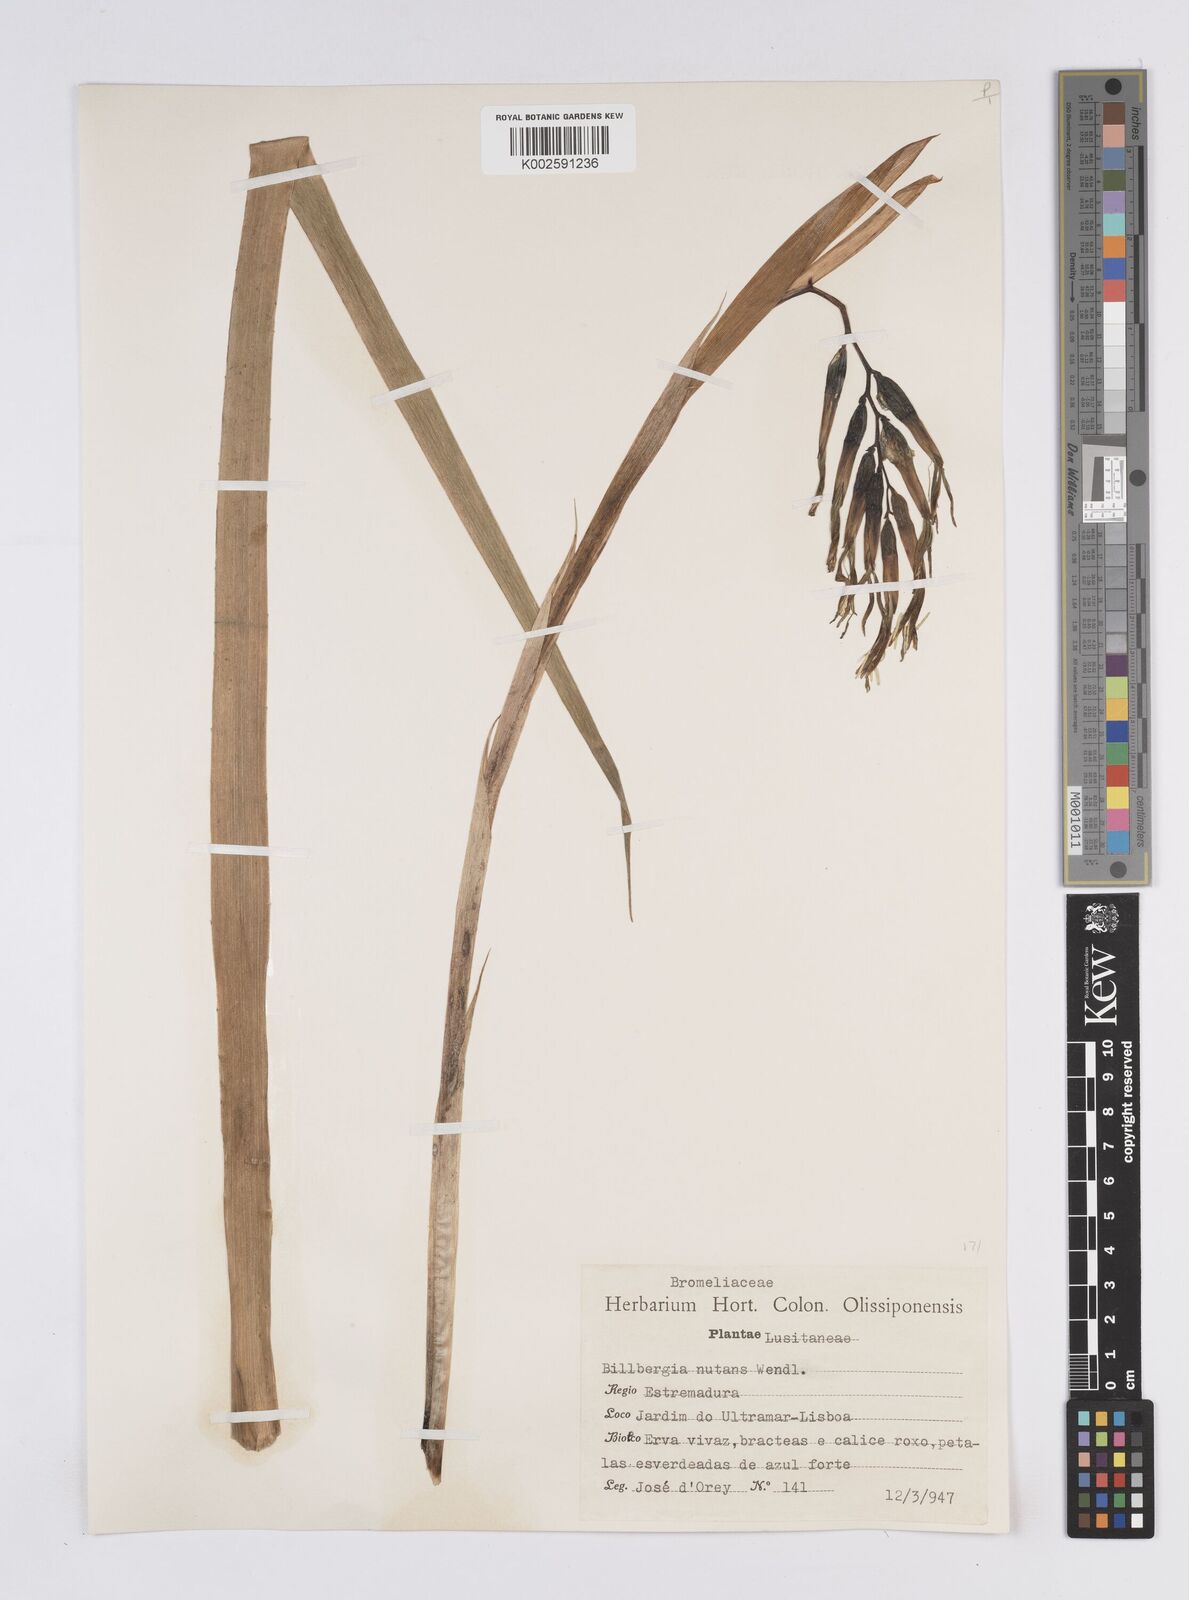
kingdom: Plantae
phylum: Tracheophyta
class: Liliopsida
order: Poales
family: Bromeliaceae
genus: Billbergia
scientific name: Billbergia nutans
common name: Friendship-plant
